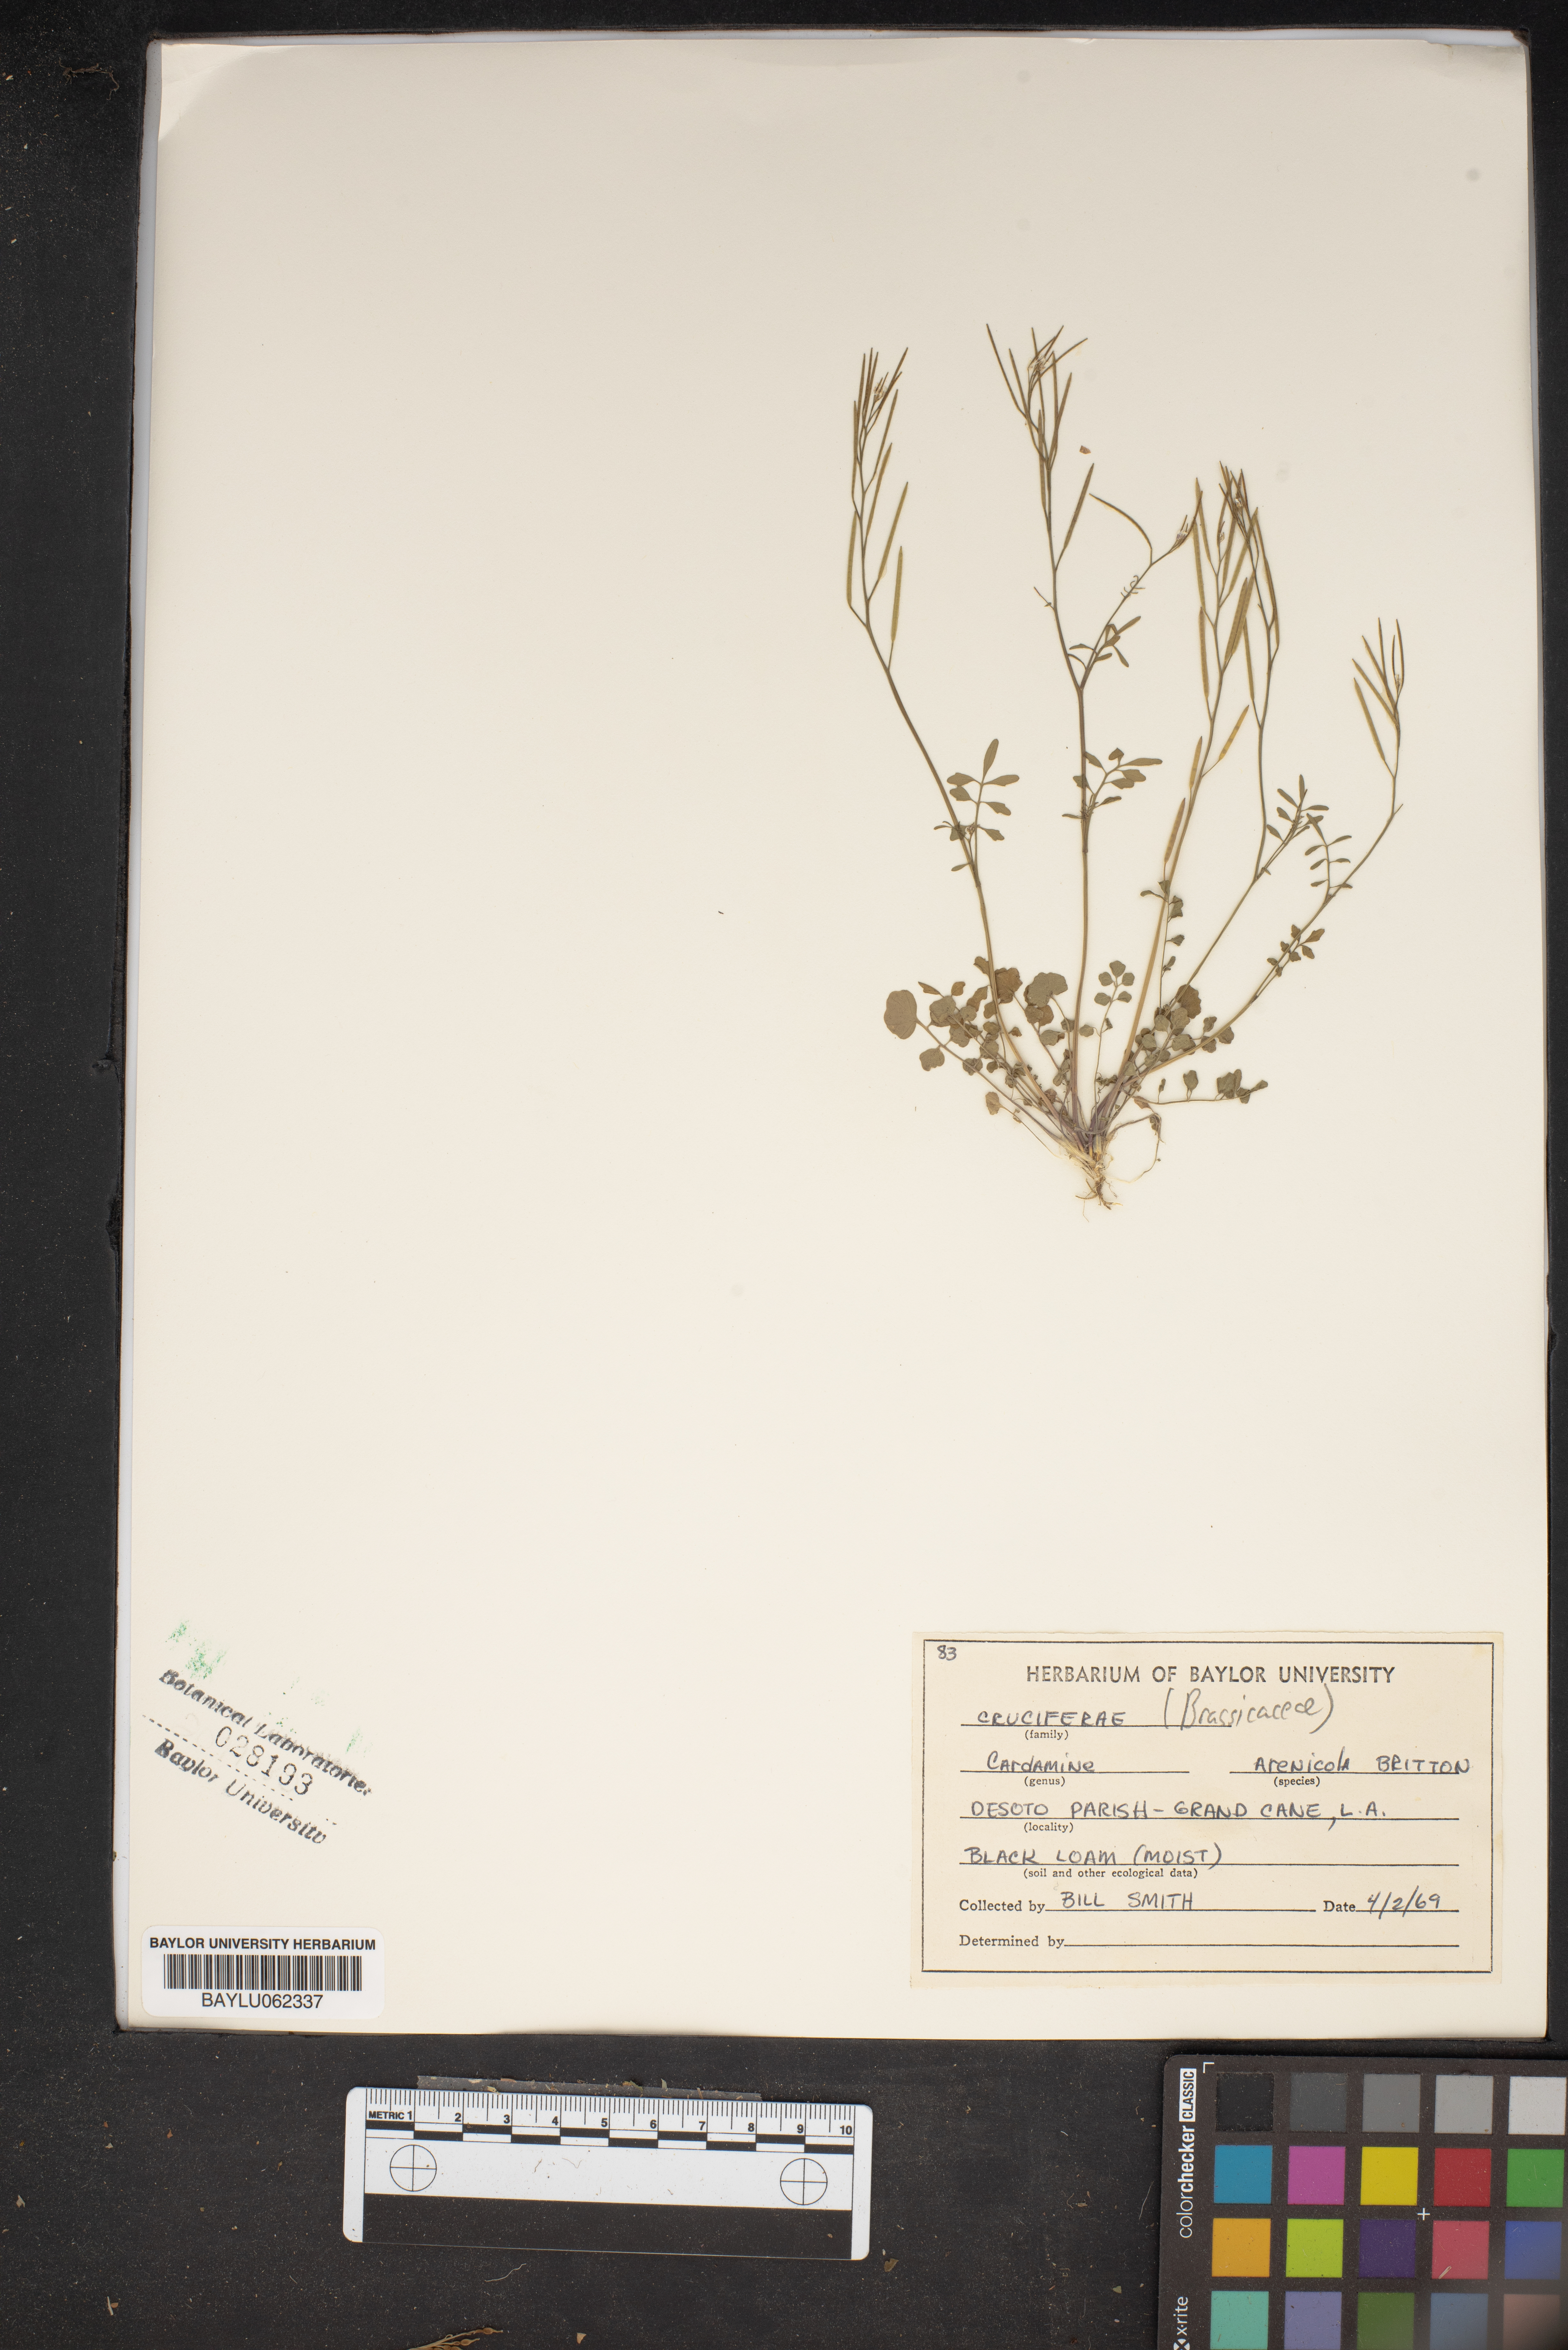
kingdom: Plantae
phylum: Tracheophyta
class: Magnoliopsida
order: Brassicales
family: Brassicaceae
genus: Cardamine
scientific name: Cardamine parviflora
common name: Sand bittercress
